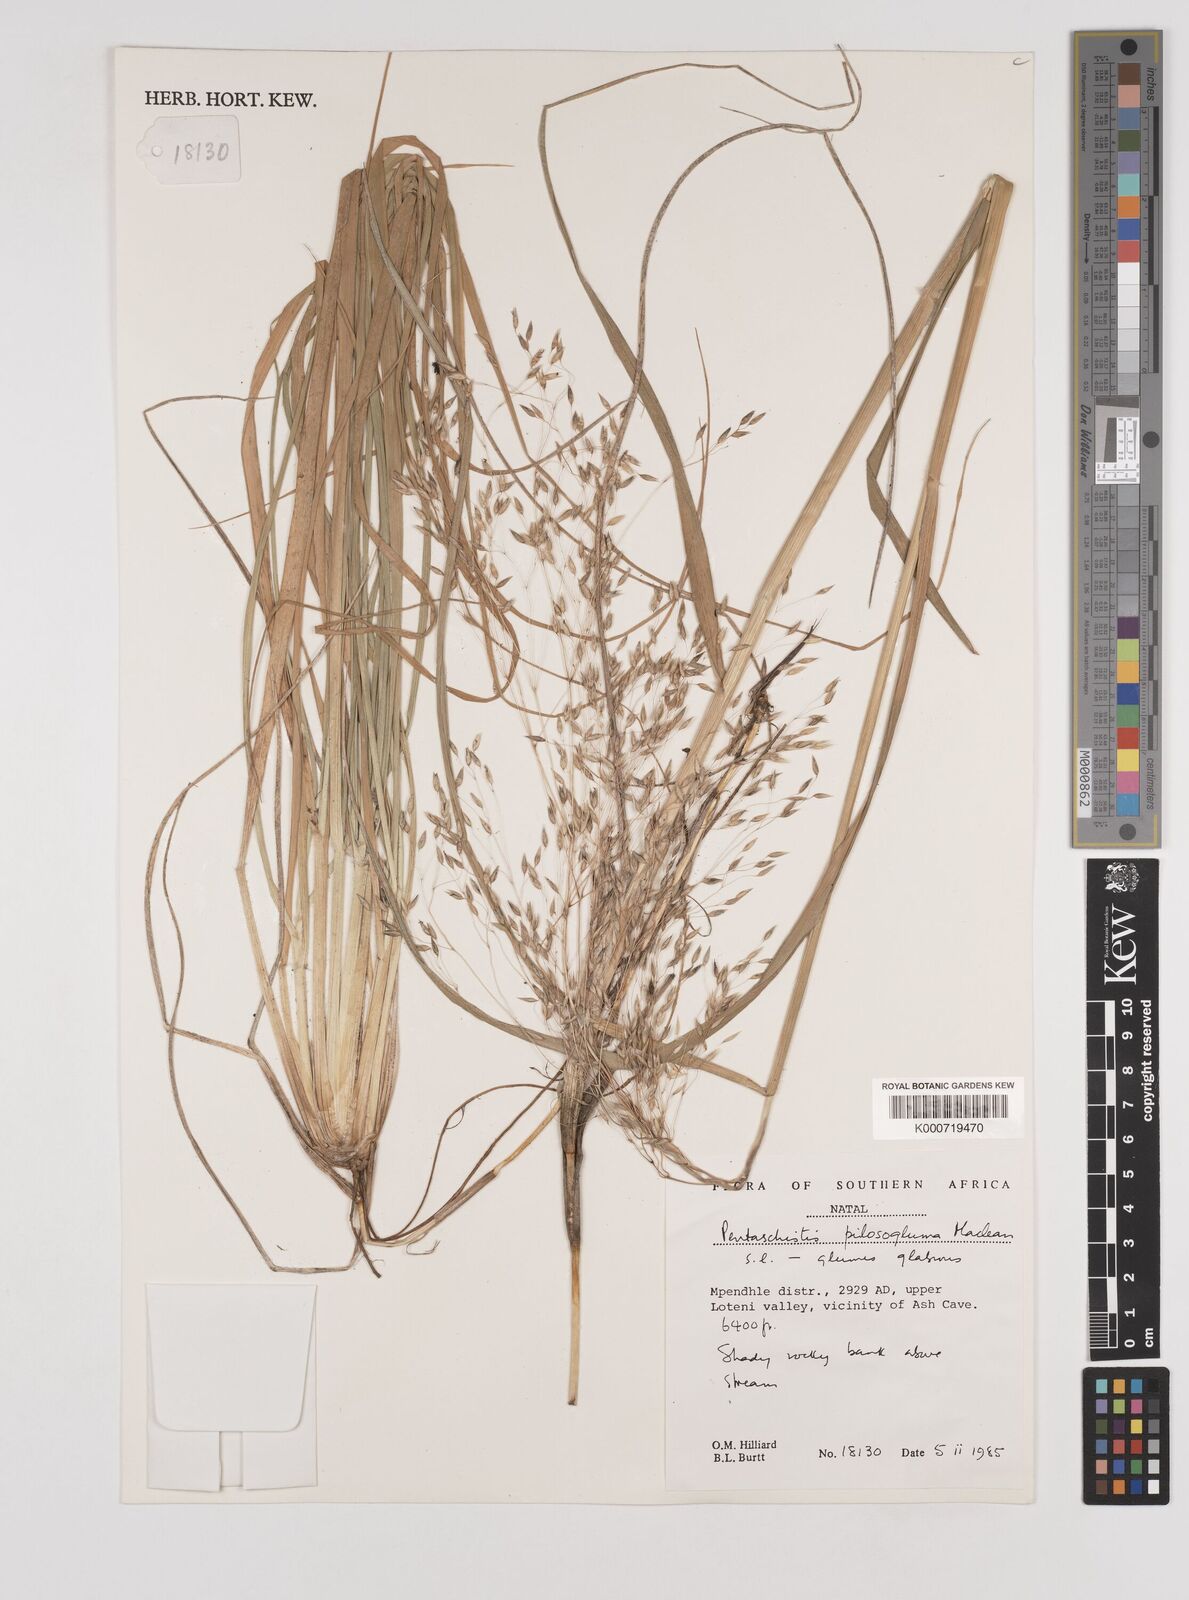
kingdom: Plantae
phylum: Tracheophyta
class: Liliopsida
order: Poales
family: Poaceae
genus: Pentameris
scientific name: Pentameris aurea
